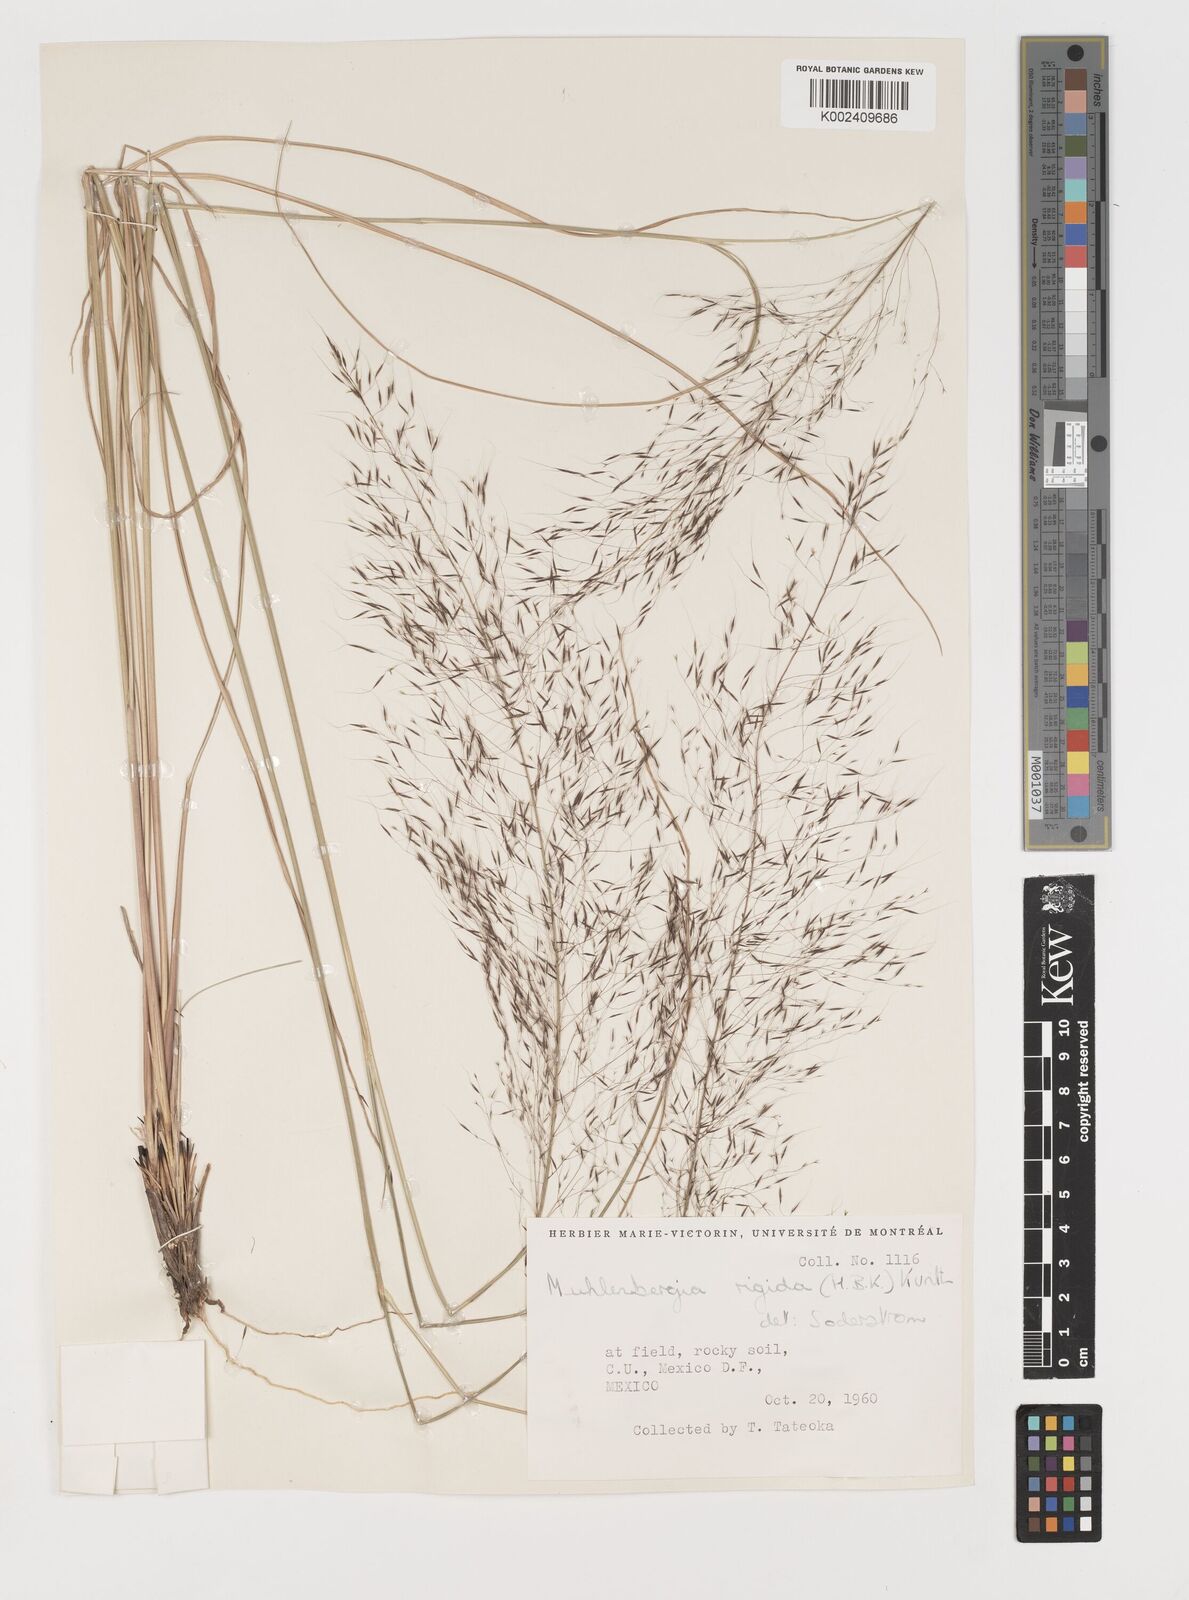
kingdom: Plantae
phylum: Tracheophyta
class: Liliopsida
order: Poales
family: Poaceae
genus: Muhlenbergia
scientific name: Muhlenbergia rigida
